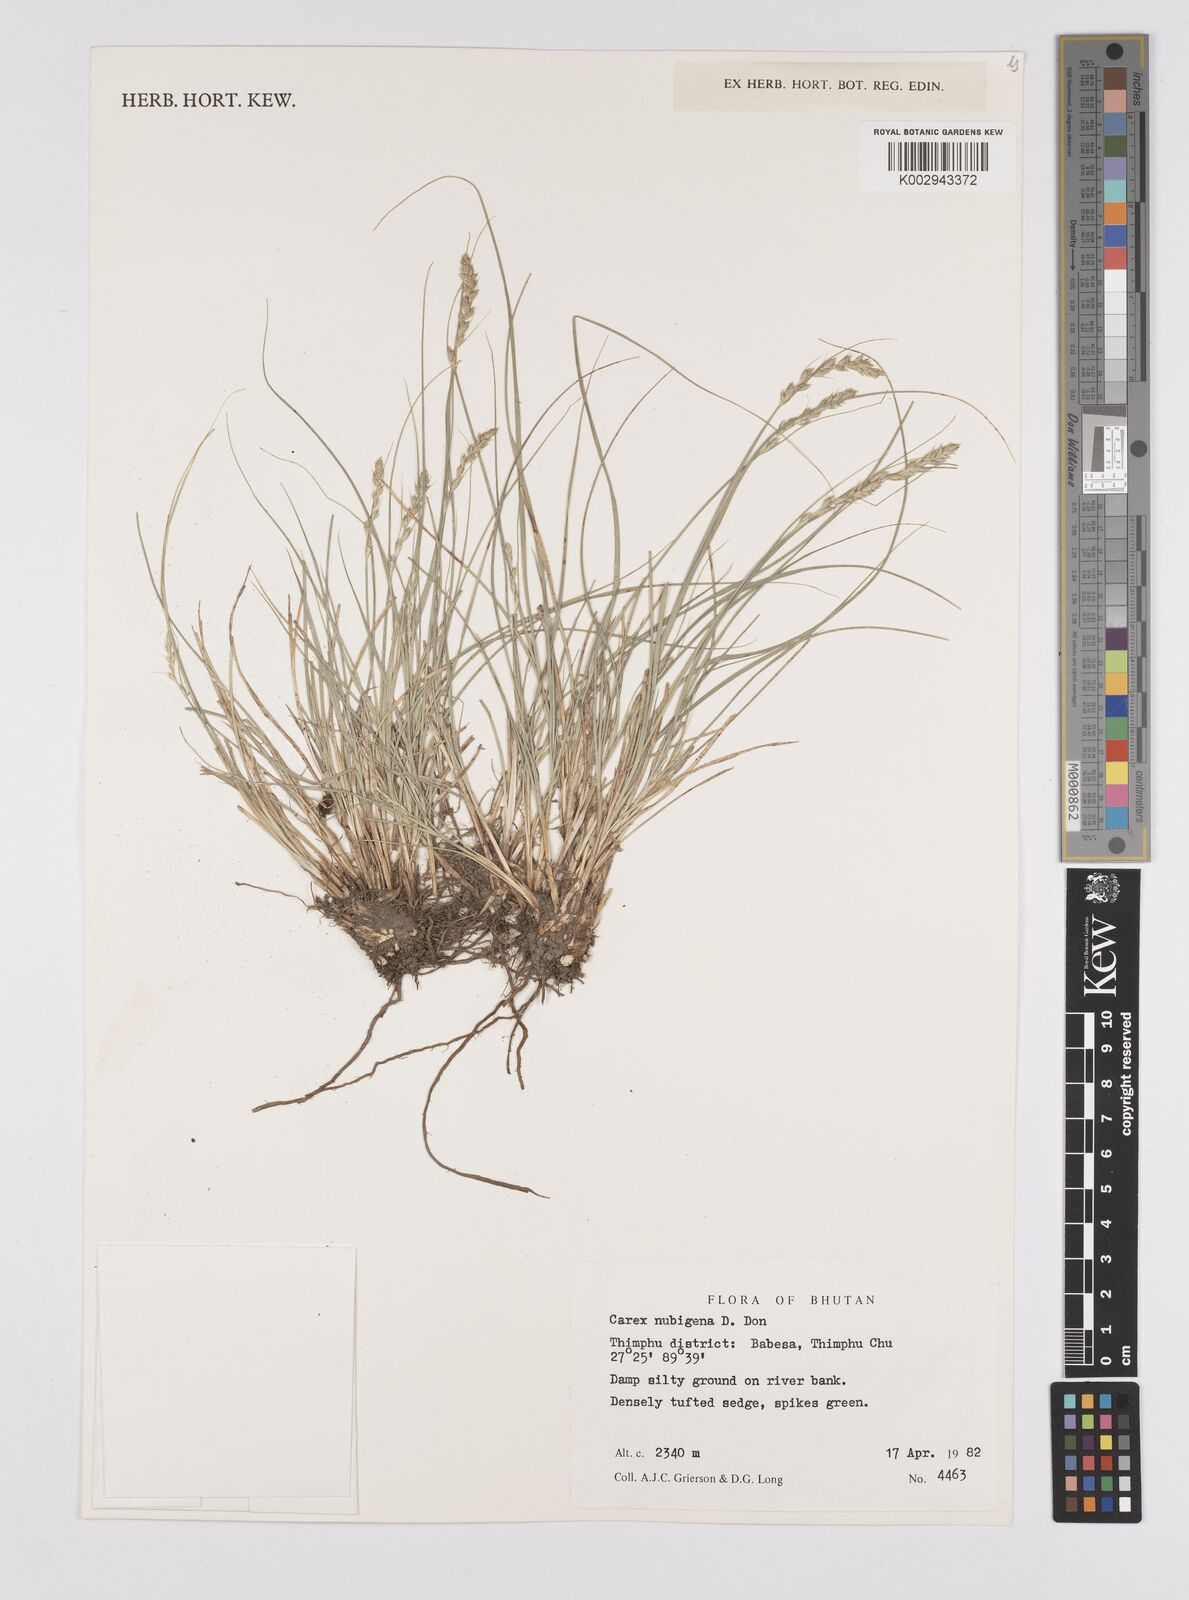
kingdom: Plantae
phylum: Tracheophyta
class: Liliopsida
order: Poales
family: Cyperaceae
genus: Carex
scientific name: Carex nubigena
